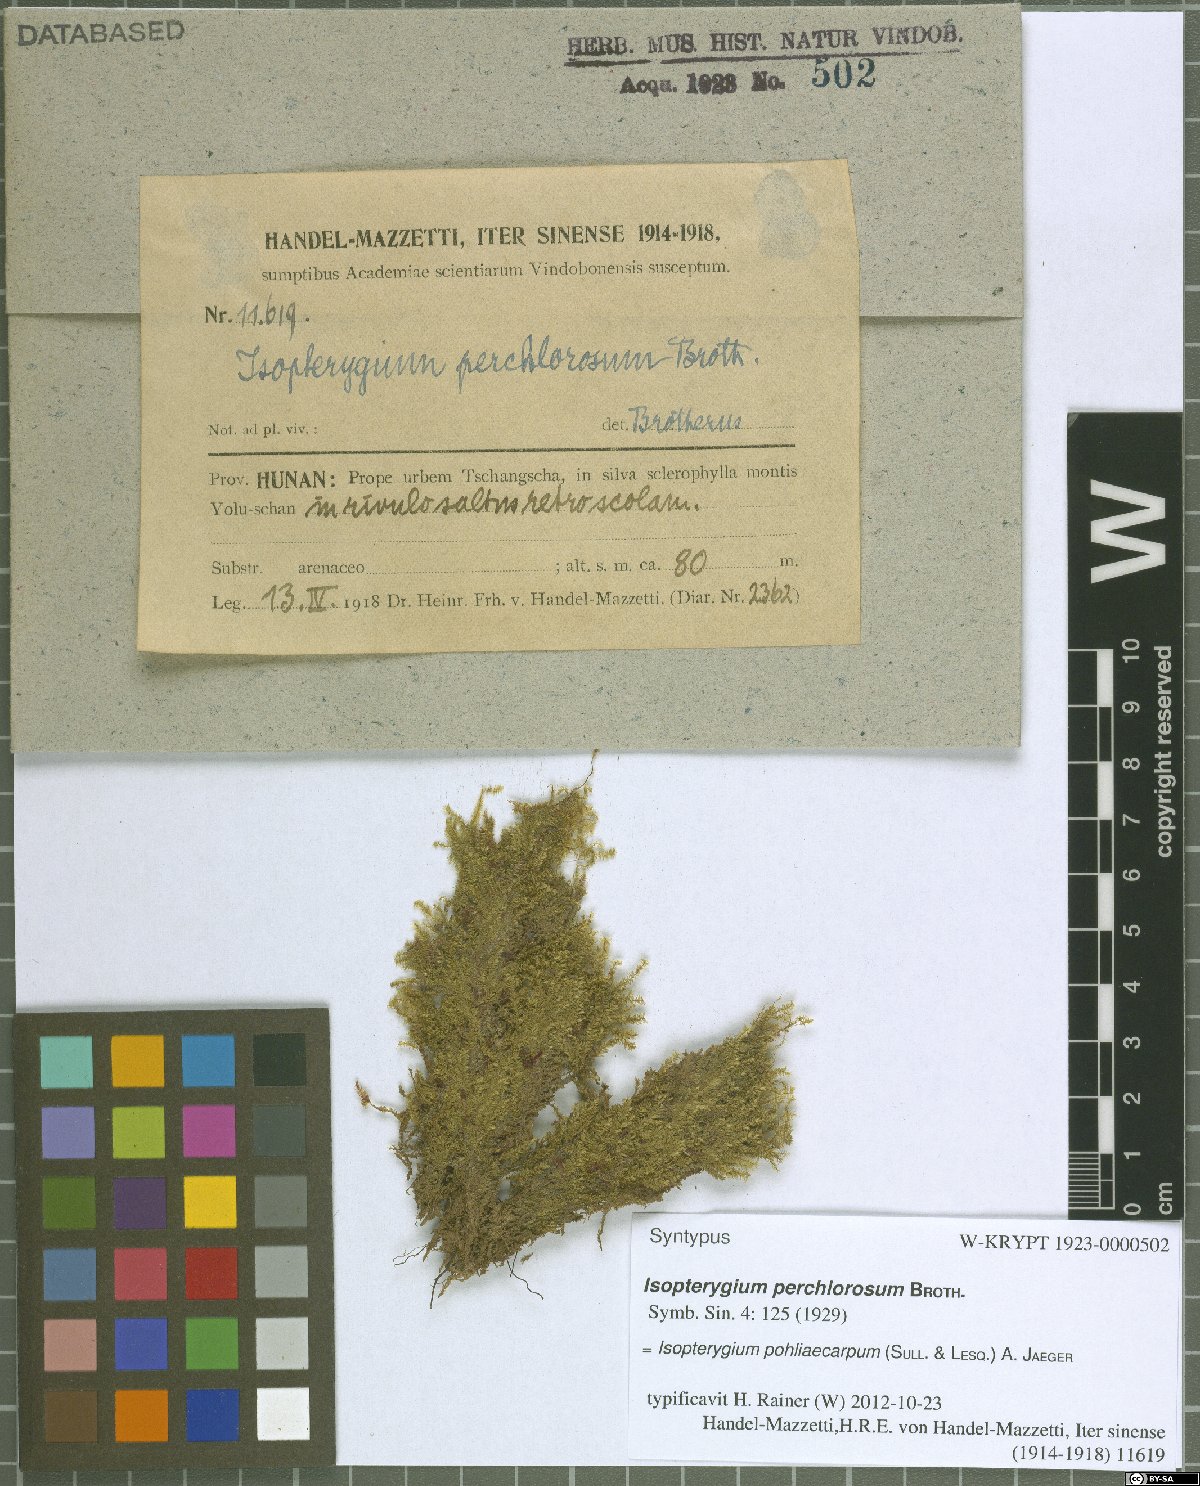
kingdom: Plantae
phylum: Bryophyta
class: Bryopsida
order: Hypnales
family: Plagiotheciaceae
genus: Pseudotaxiphyllum
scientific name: Pseudotaxiphyllum pohliicarpum
